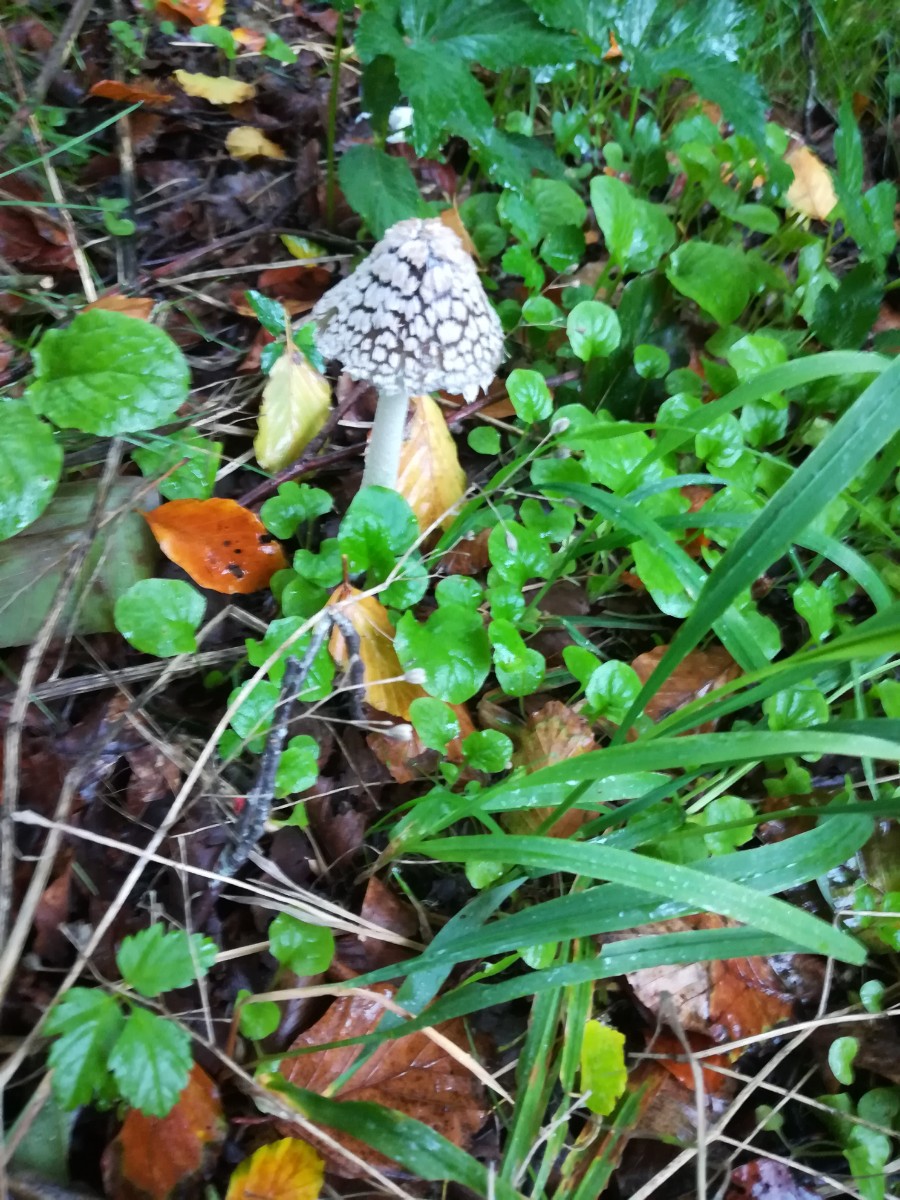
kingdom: Fungi
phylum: Basidiomycota
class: Agaricomycetes
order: Agaricales
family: Psathyrellaceae
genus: Coprinopsis
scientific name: Coprinopsis picacea
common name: skade-blækhat
